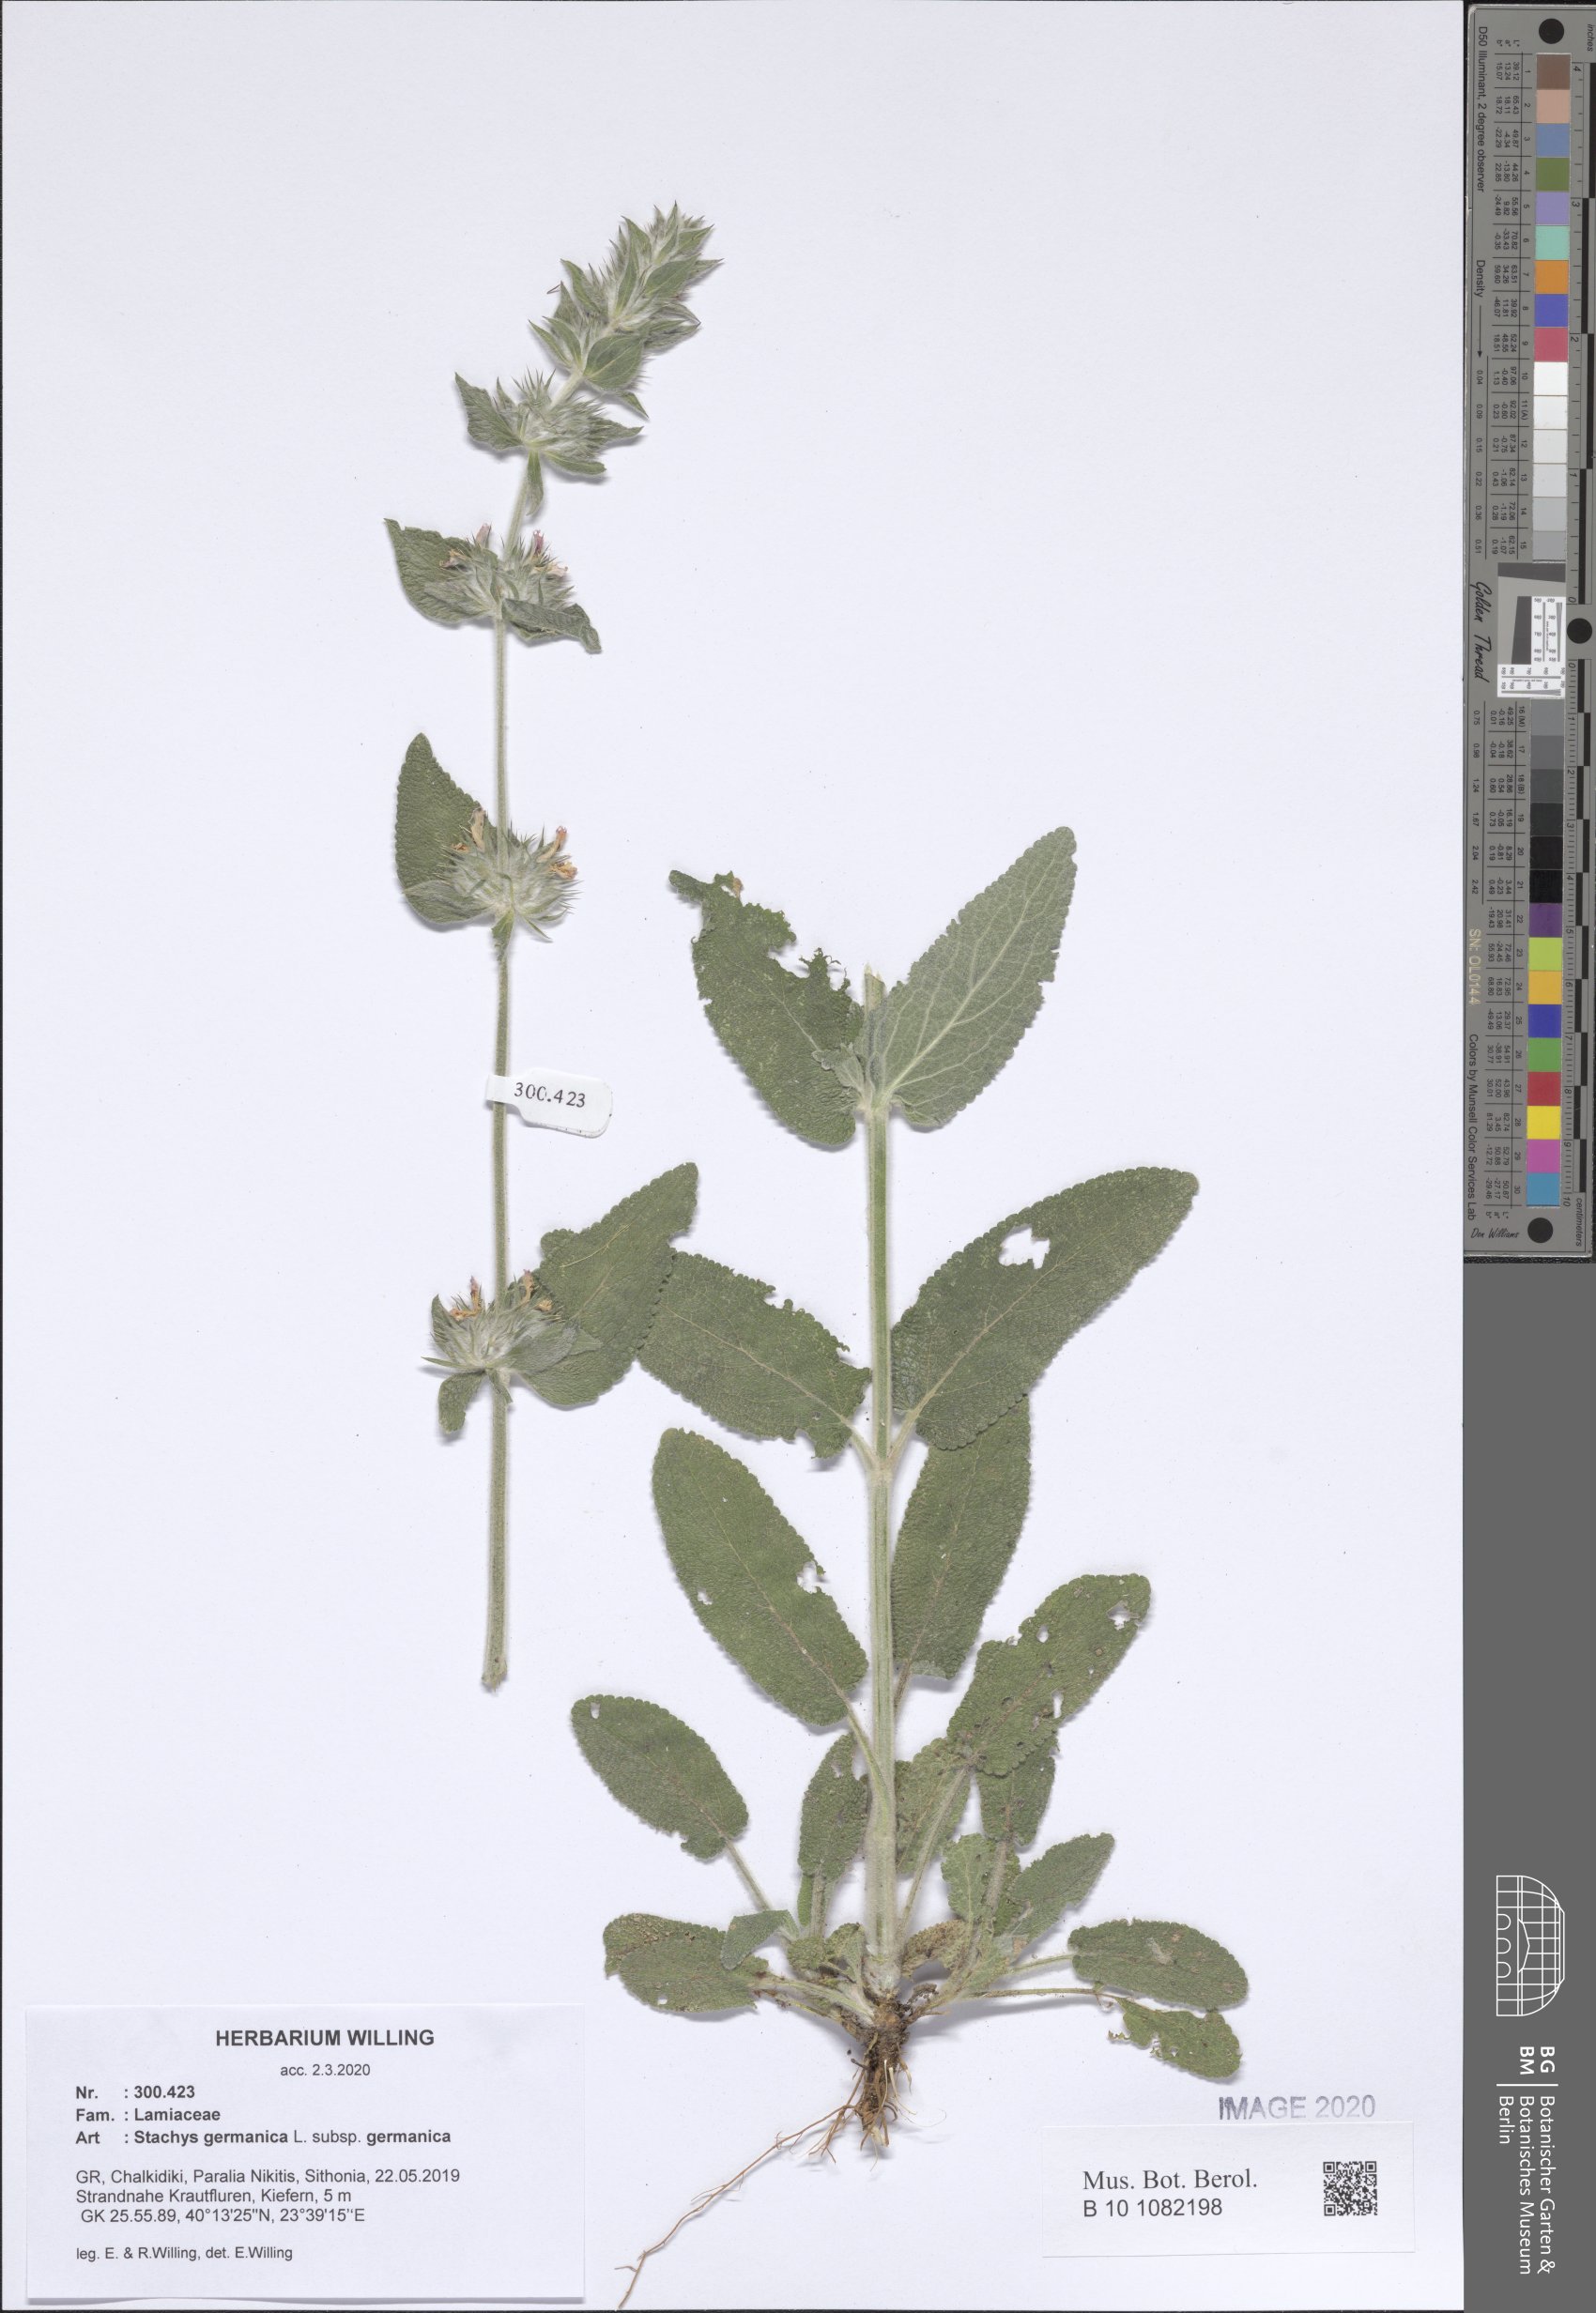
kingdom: Plantae
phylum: Tracheophyta
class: Magnoliopsida
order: Lamiales
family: Lamiaceae
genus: Stachys
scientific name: Stachys germanica
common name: Downy woundwort
